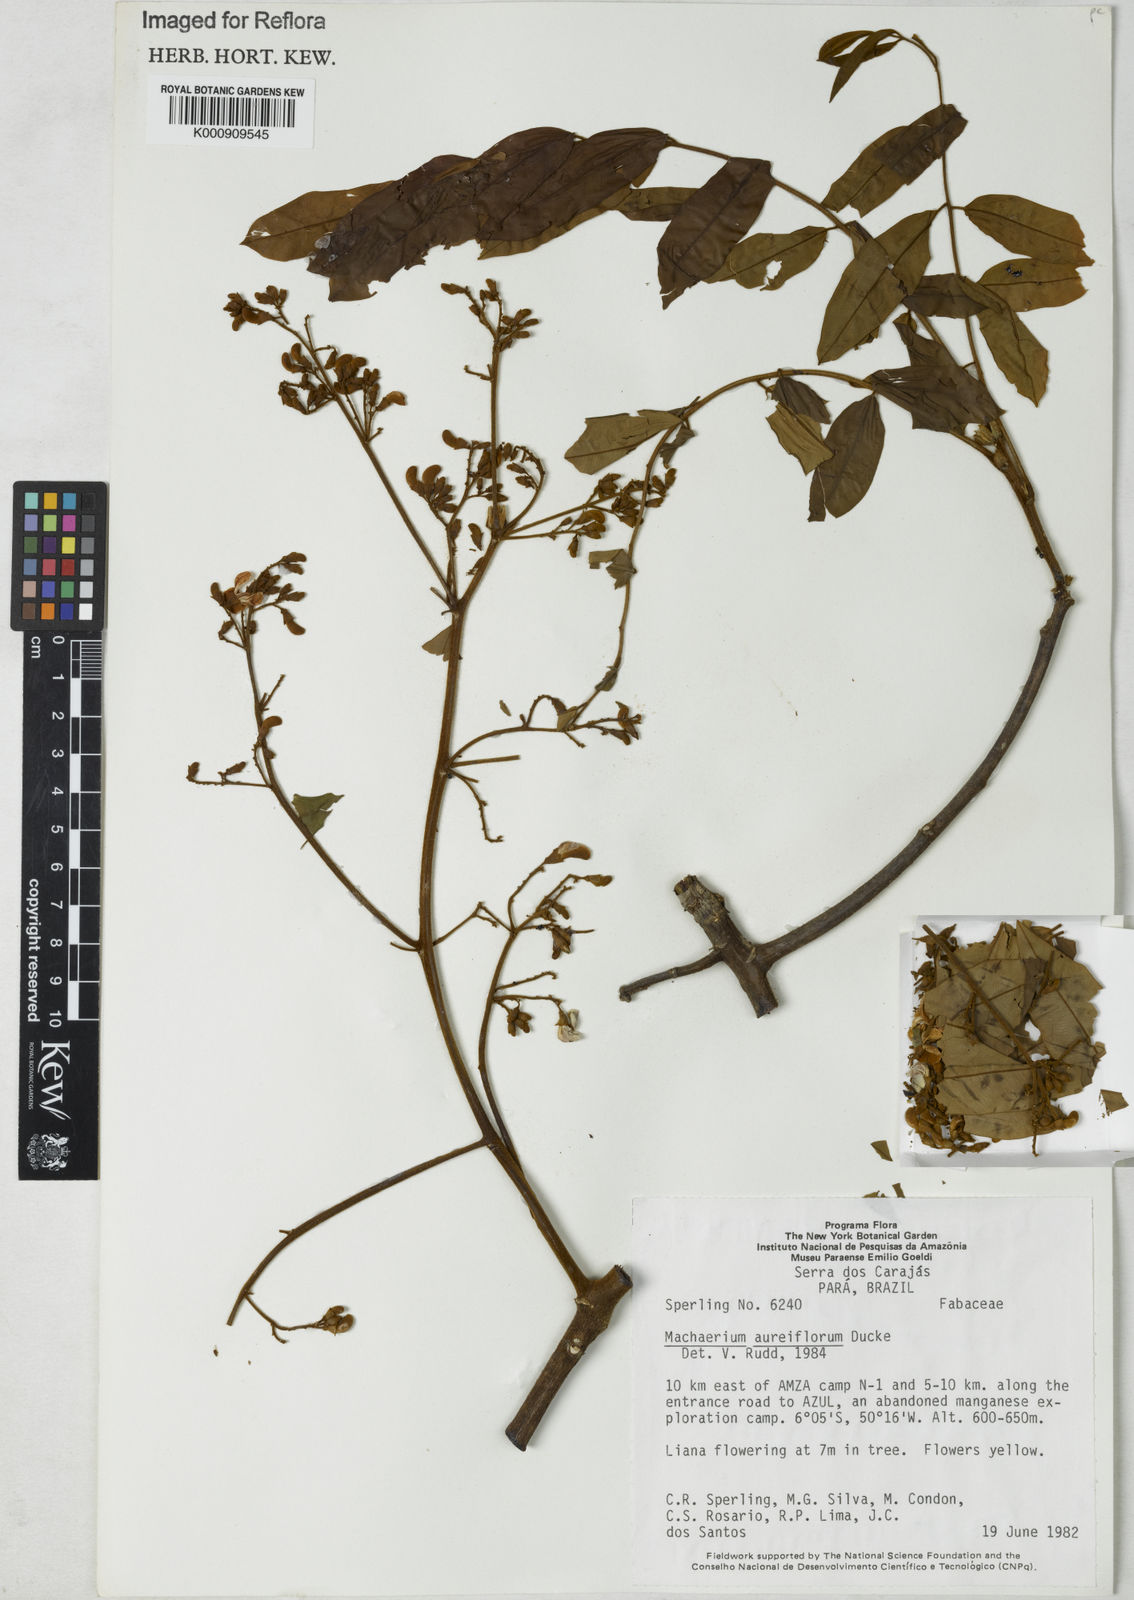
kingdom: Plantae
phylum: Tracheophyta
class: Magnoliopsida
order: Fabales
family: Fabaceae
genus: Machaerium
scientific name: Machaerium aureiflorum
